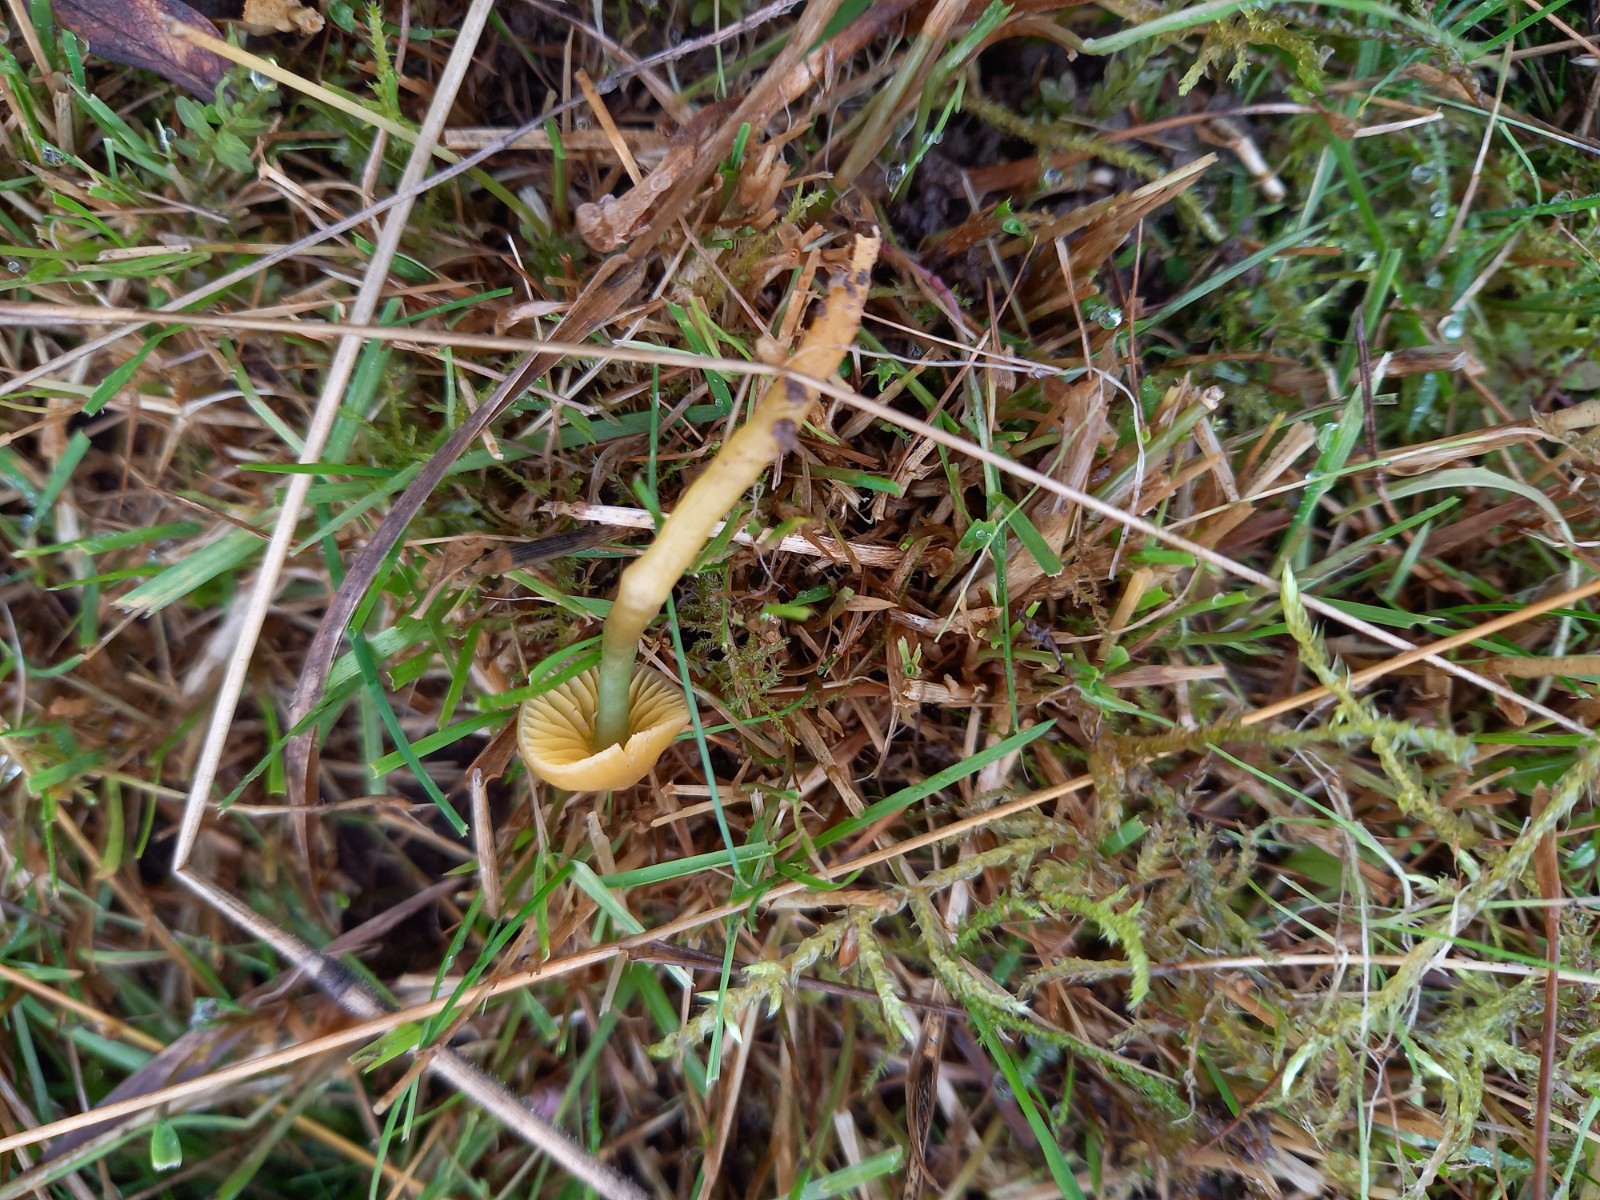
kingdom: Fungi
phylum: Basidiomycota
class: Agaricomycetes
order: Agaricales
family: Hygrophoraceae
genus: Gliophorus
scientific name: Gliophorus psittacinus
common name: papegøje-vokshat
